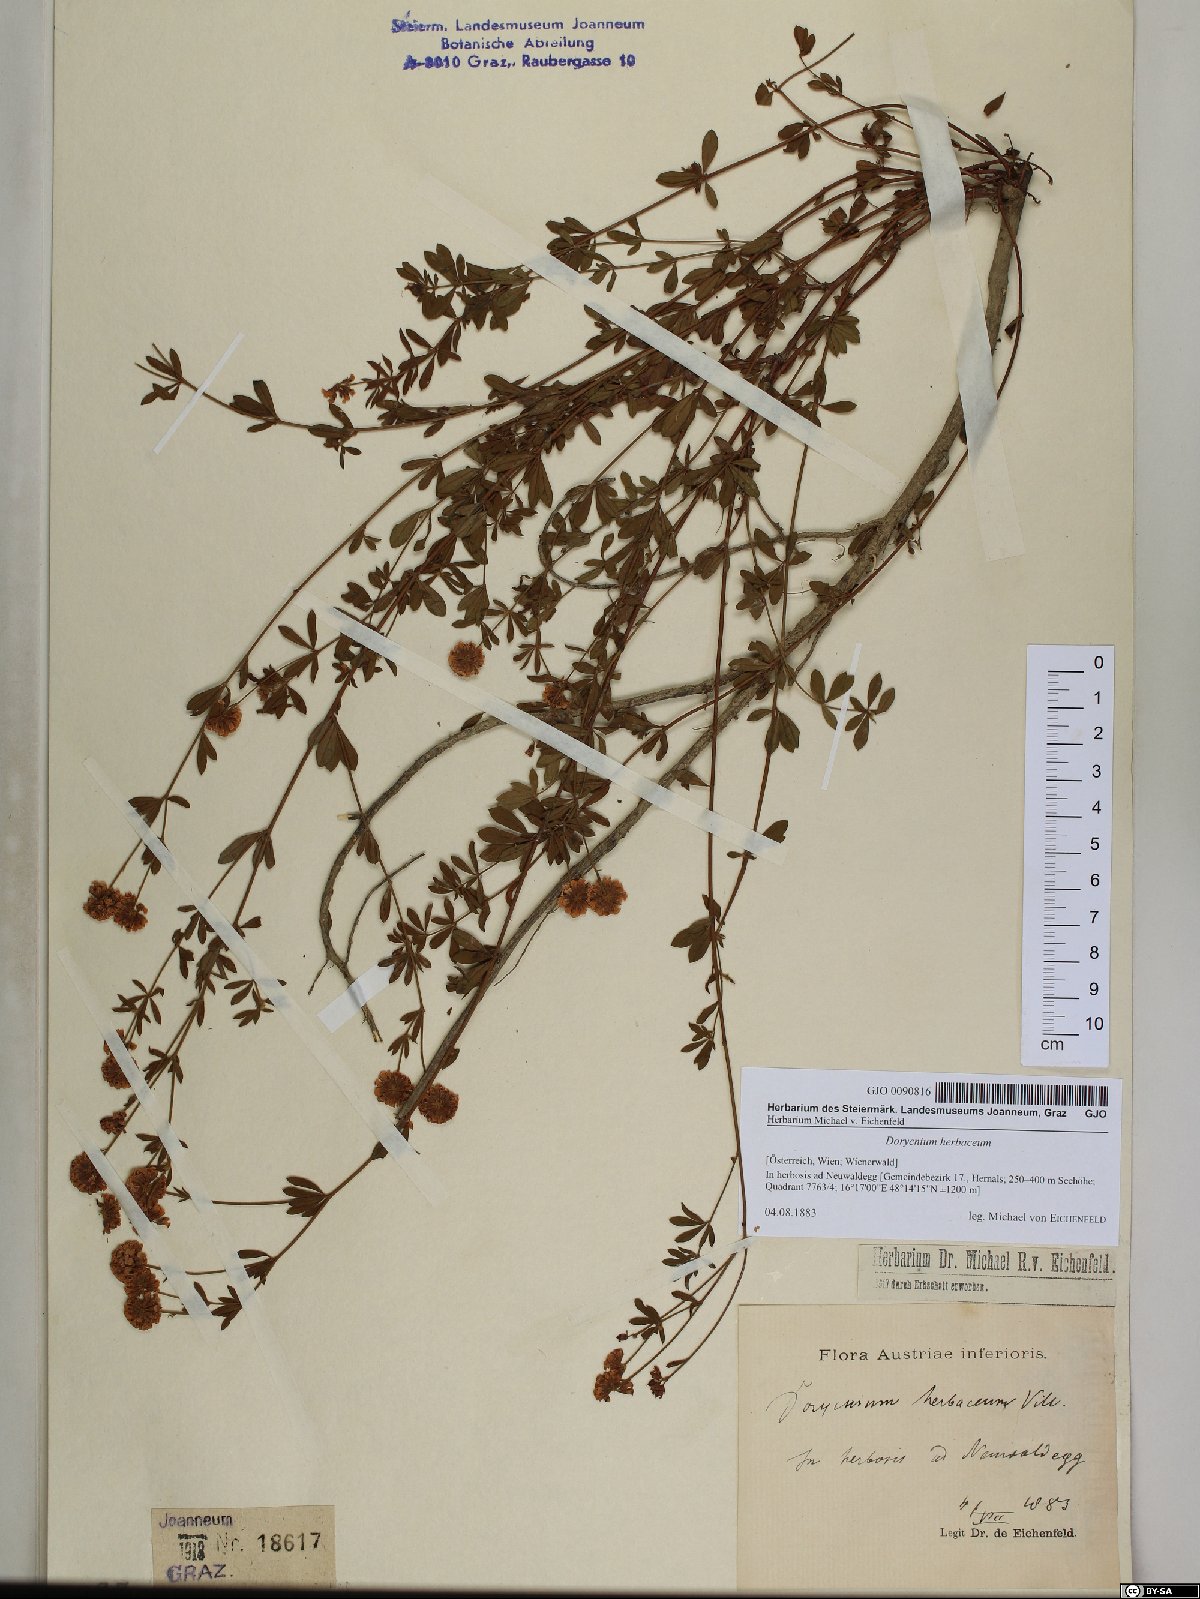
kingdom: Plantae
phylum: Tracheophyta
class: Magnoliopsida
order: Fabales
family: Fabaceae
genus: Lotus
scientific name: Lotus herbaceus
